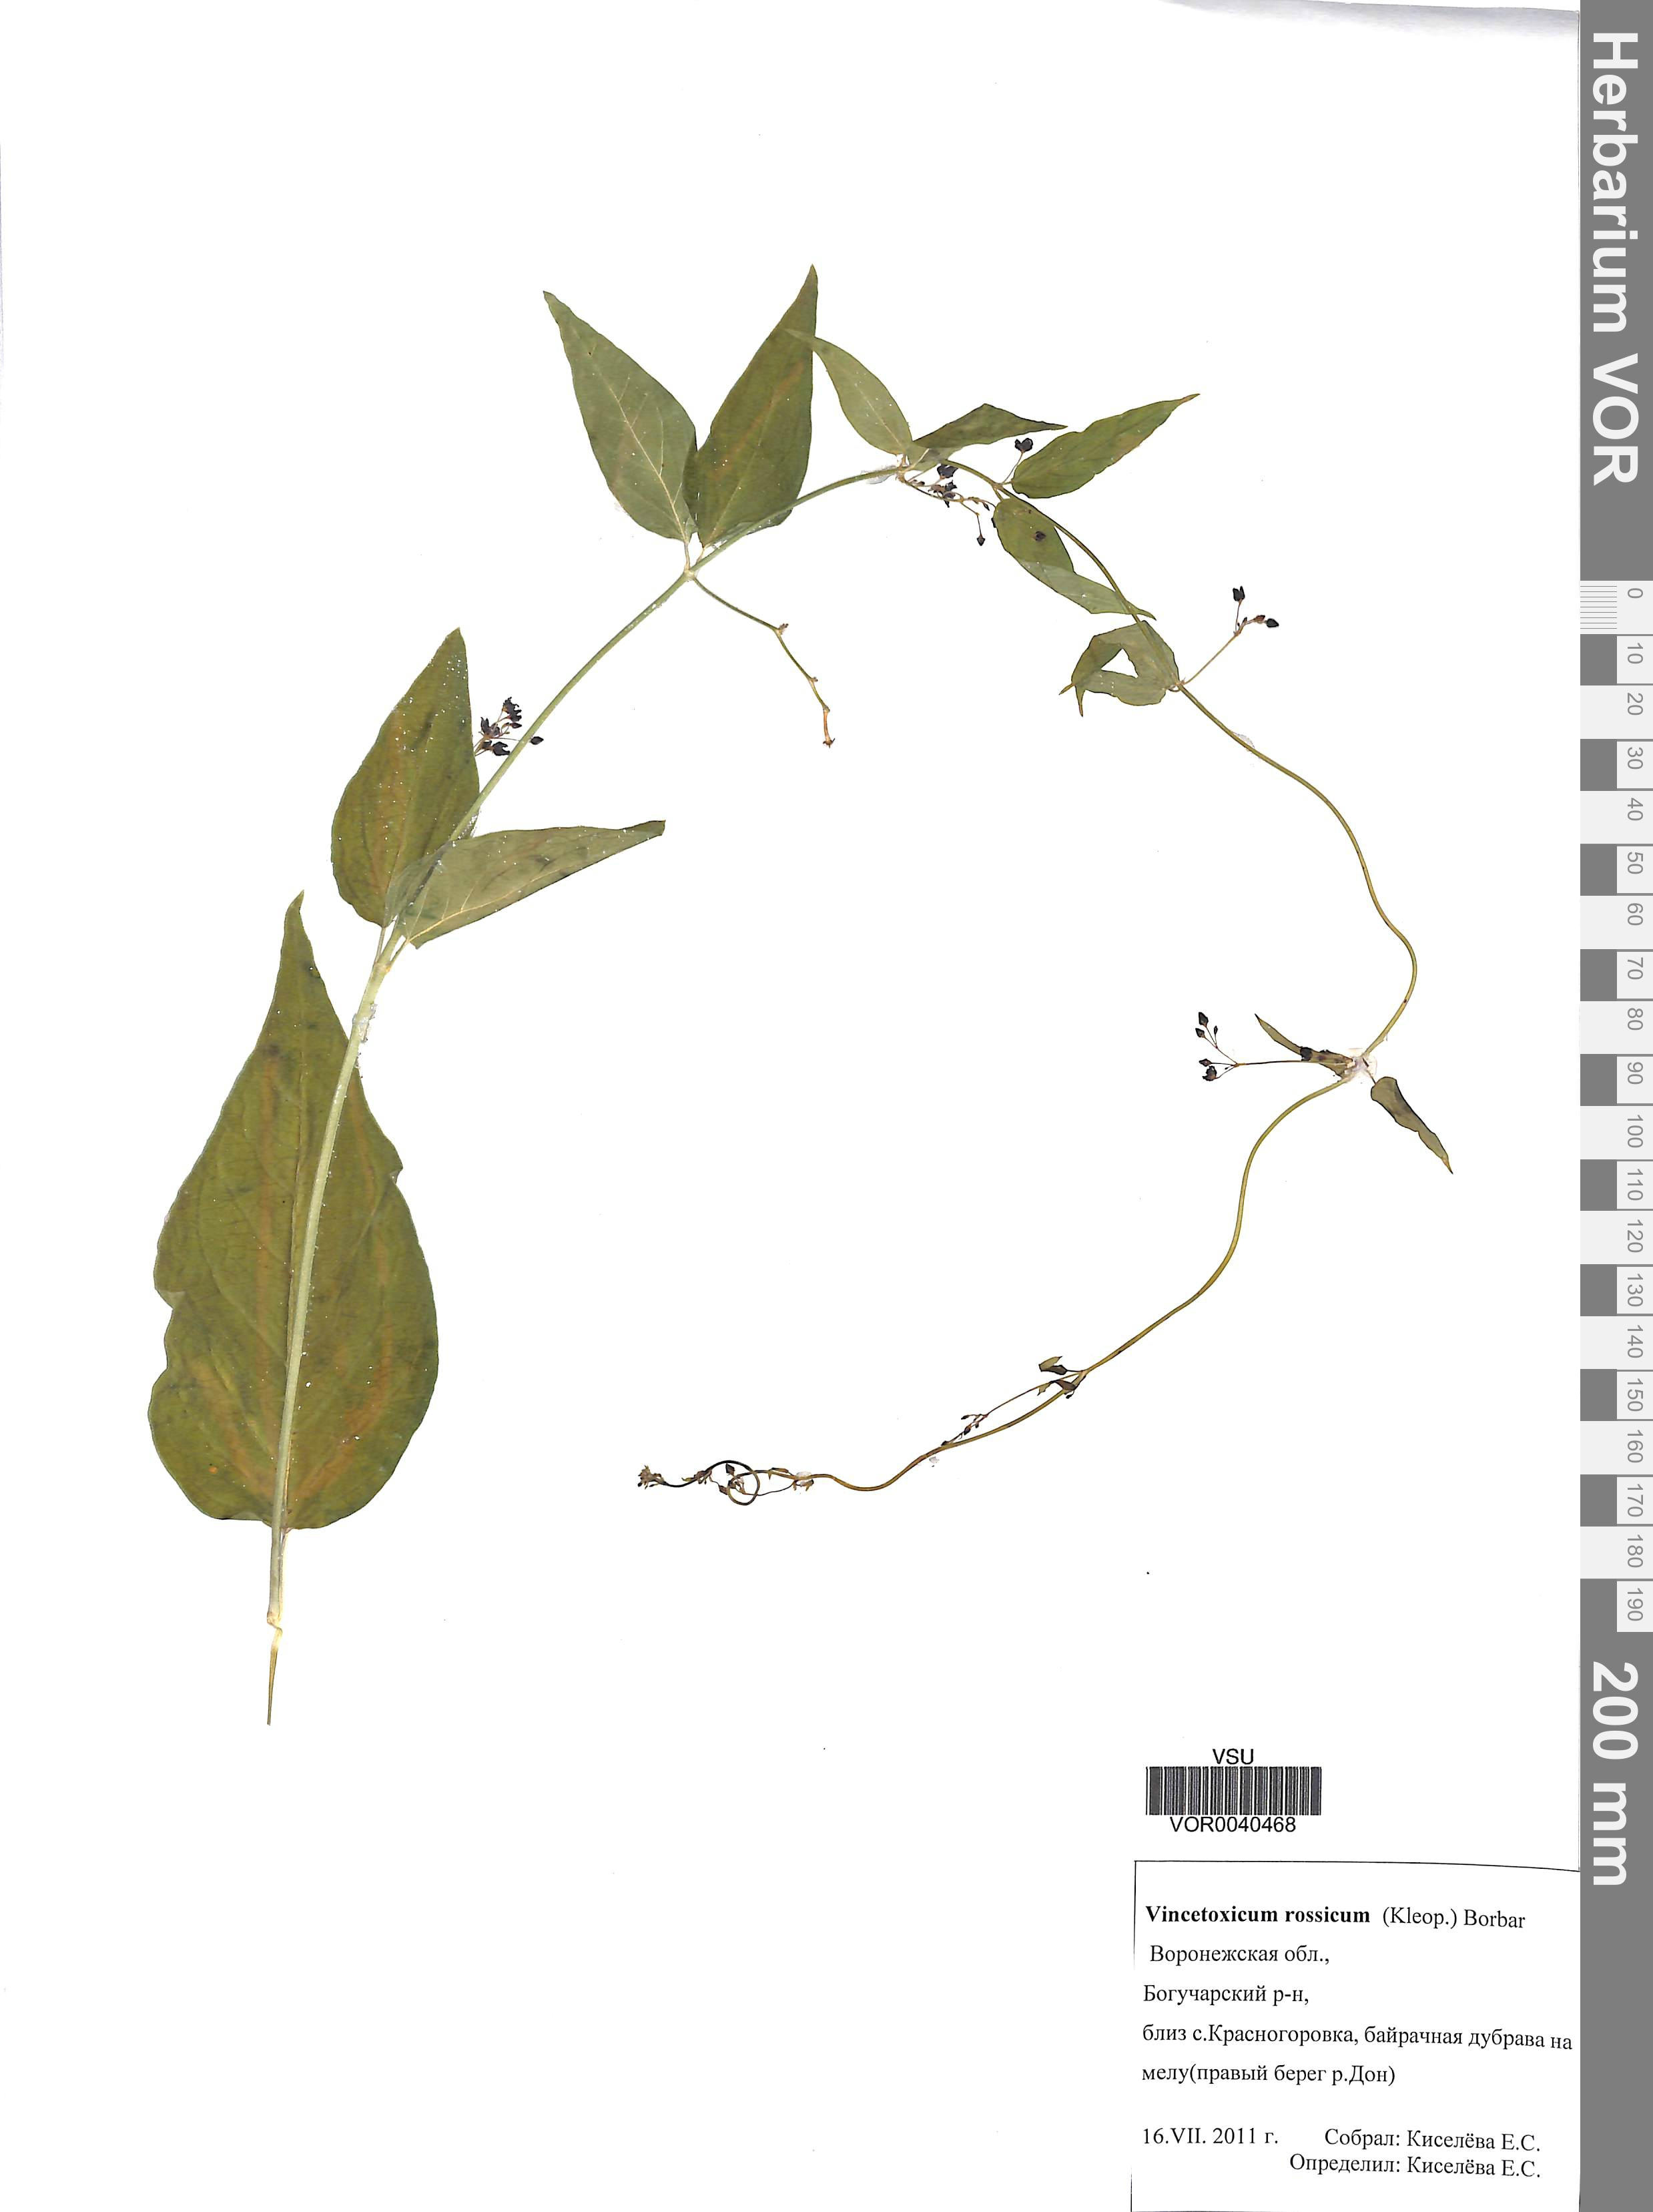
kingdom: Plantae
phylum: Tracheophyta
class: Magnoliopsida
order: Gentianales
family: Apocynaceae
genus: Vincetoxicum
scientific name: Vincetoxicum rossicum
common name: Dog-strangling vine
